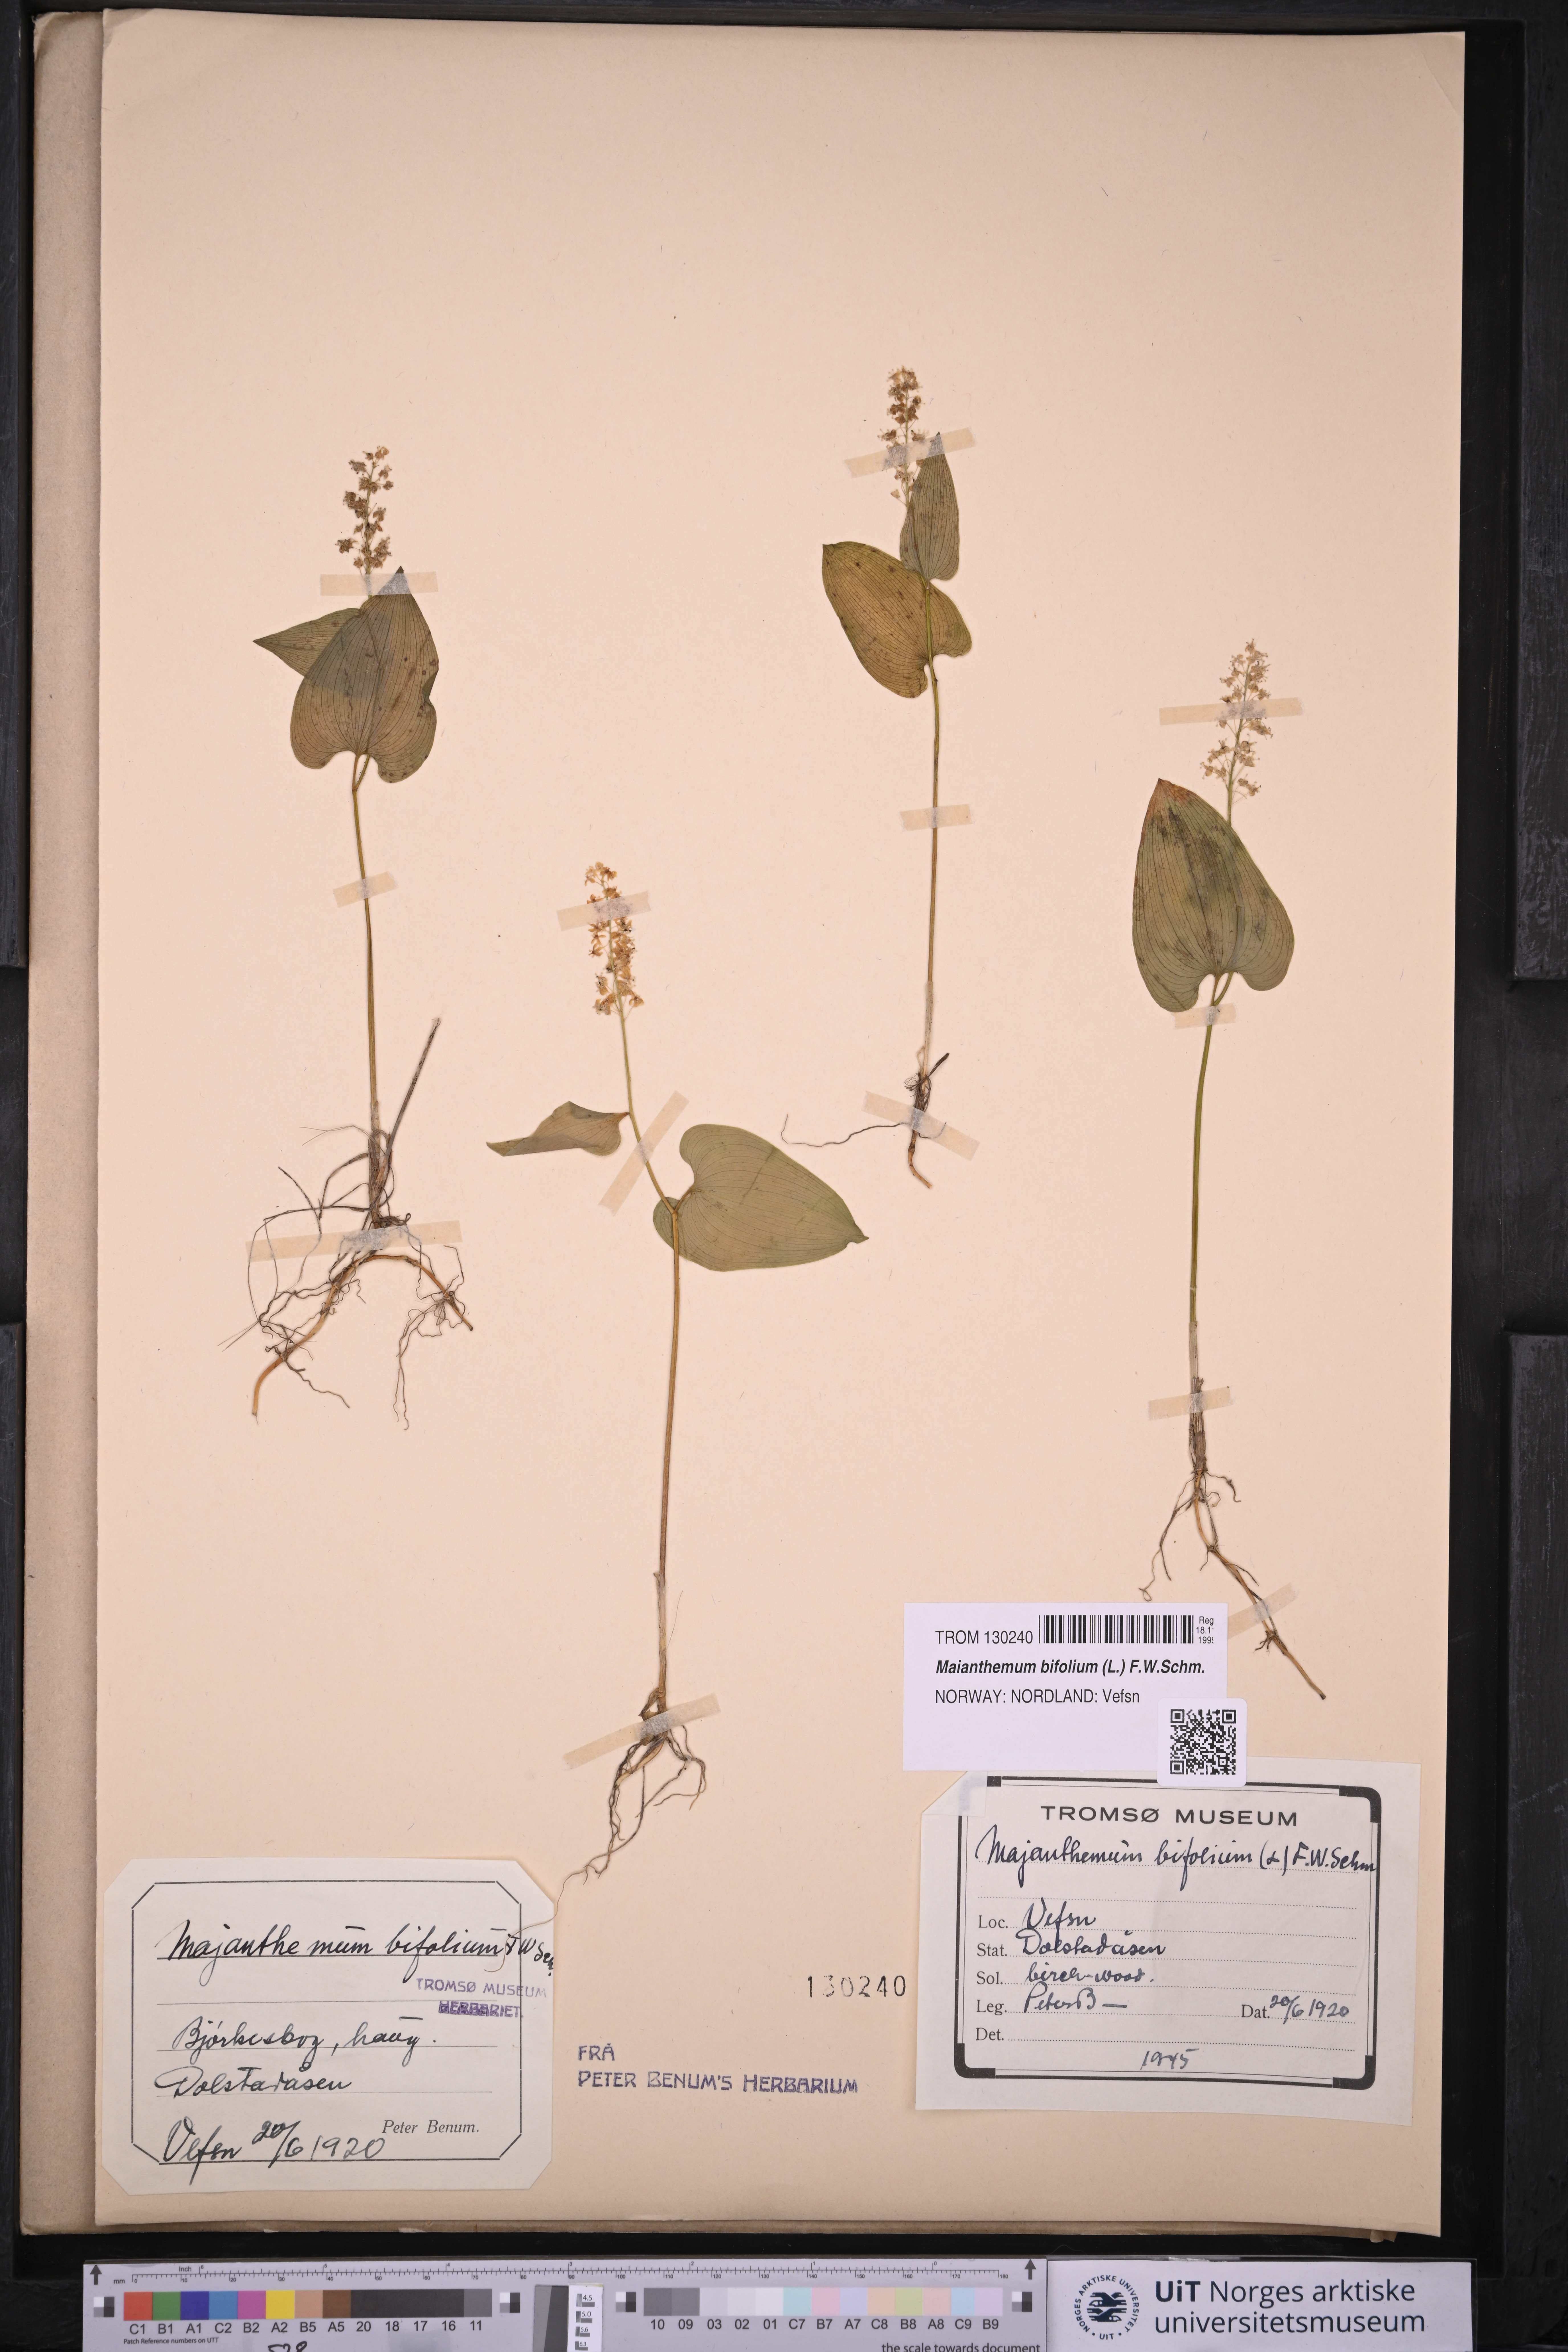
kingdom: Plantae
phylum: Tracheophyta
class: Liliopsida
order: Asparagales
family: Asparagaceae
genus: Maianthemum
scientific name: Maianthemum bifolium
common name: May lily
